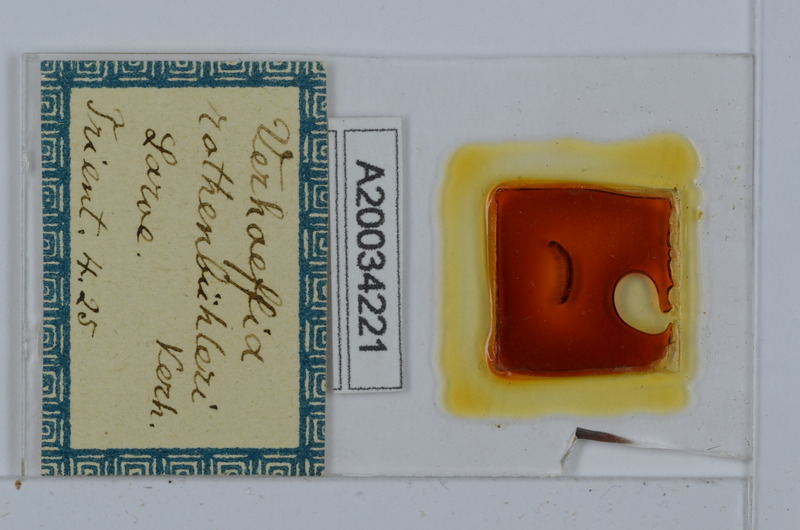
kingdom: Animalia
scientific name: Animalia
